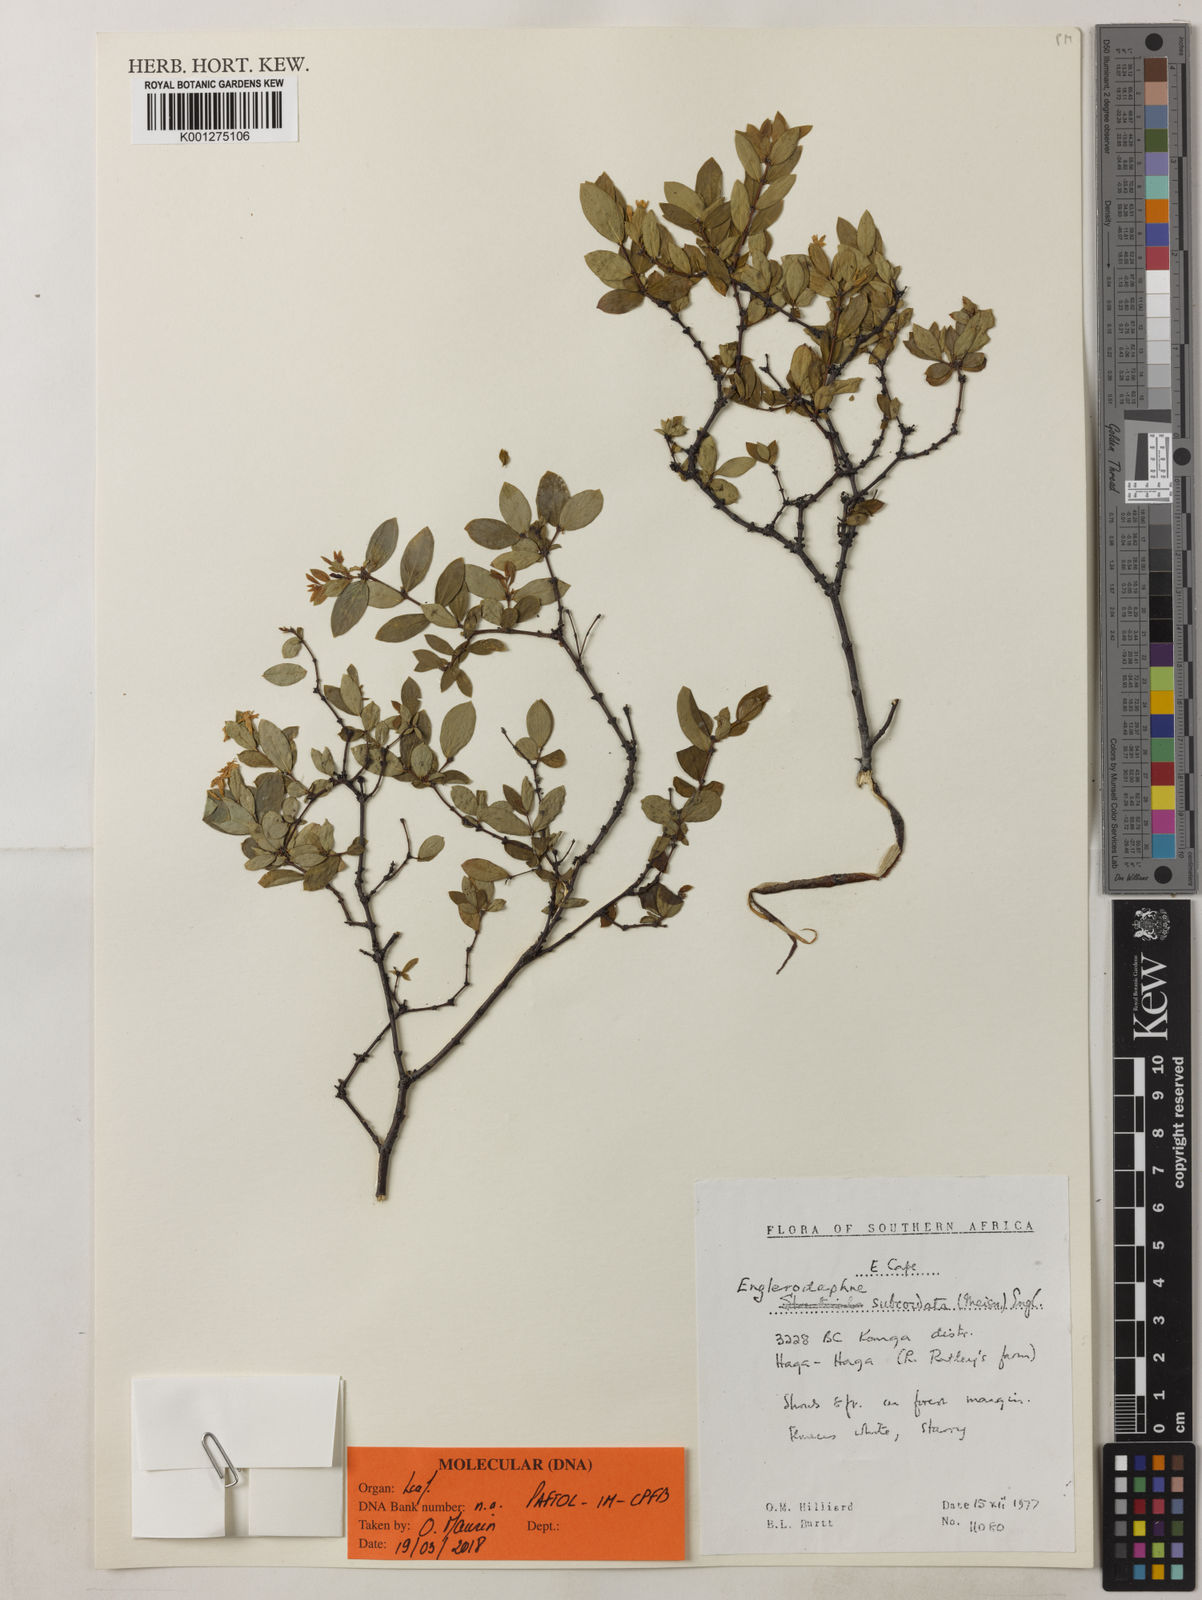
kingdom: Plantae
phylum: Tracheophyta
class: Magnoliopsida
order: Malvales
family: Thymelaeaceae
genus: Gnidia
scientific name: Gnidia subcordata
